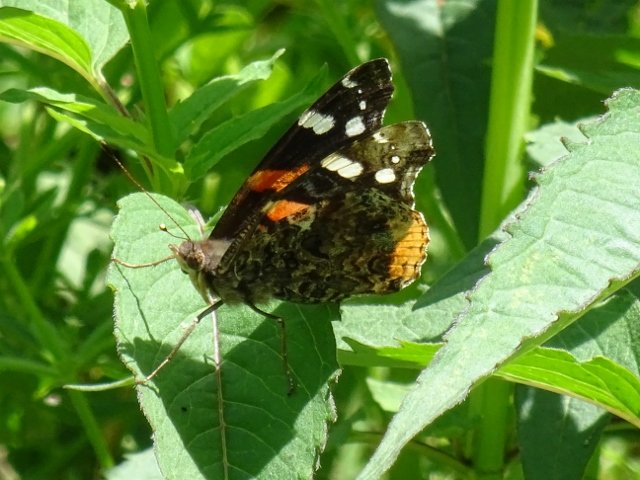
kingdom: Animalia
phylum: Arthropoda
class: Insecta
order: Lepidoptera
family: Nymphalidae
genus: Vanessa
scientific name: Vanessa atalanta
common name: Red Admiral
